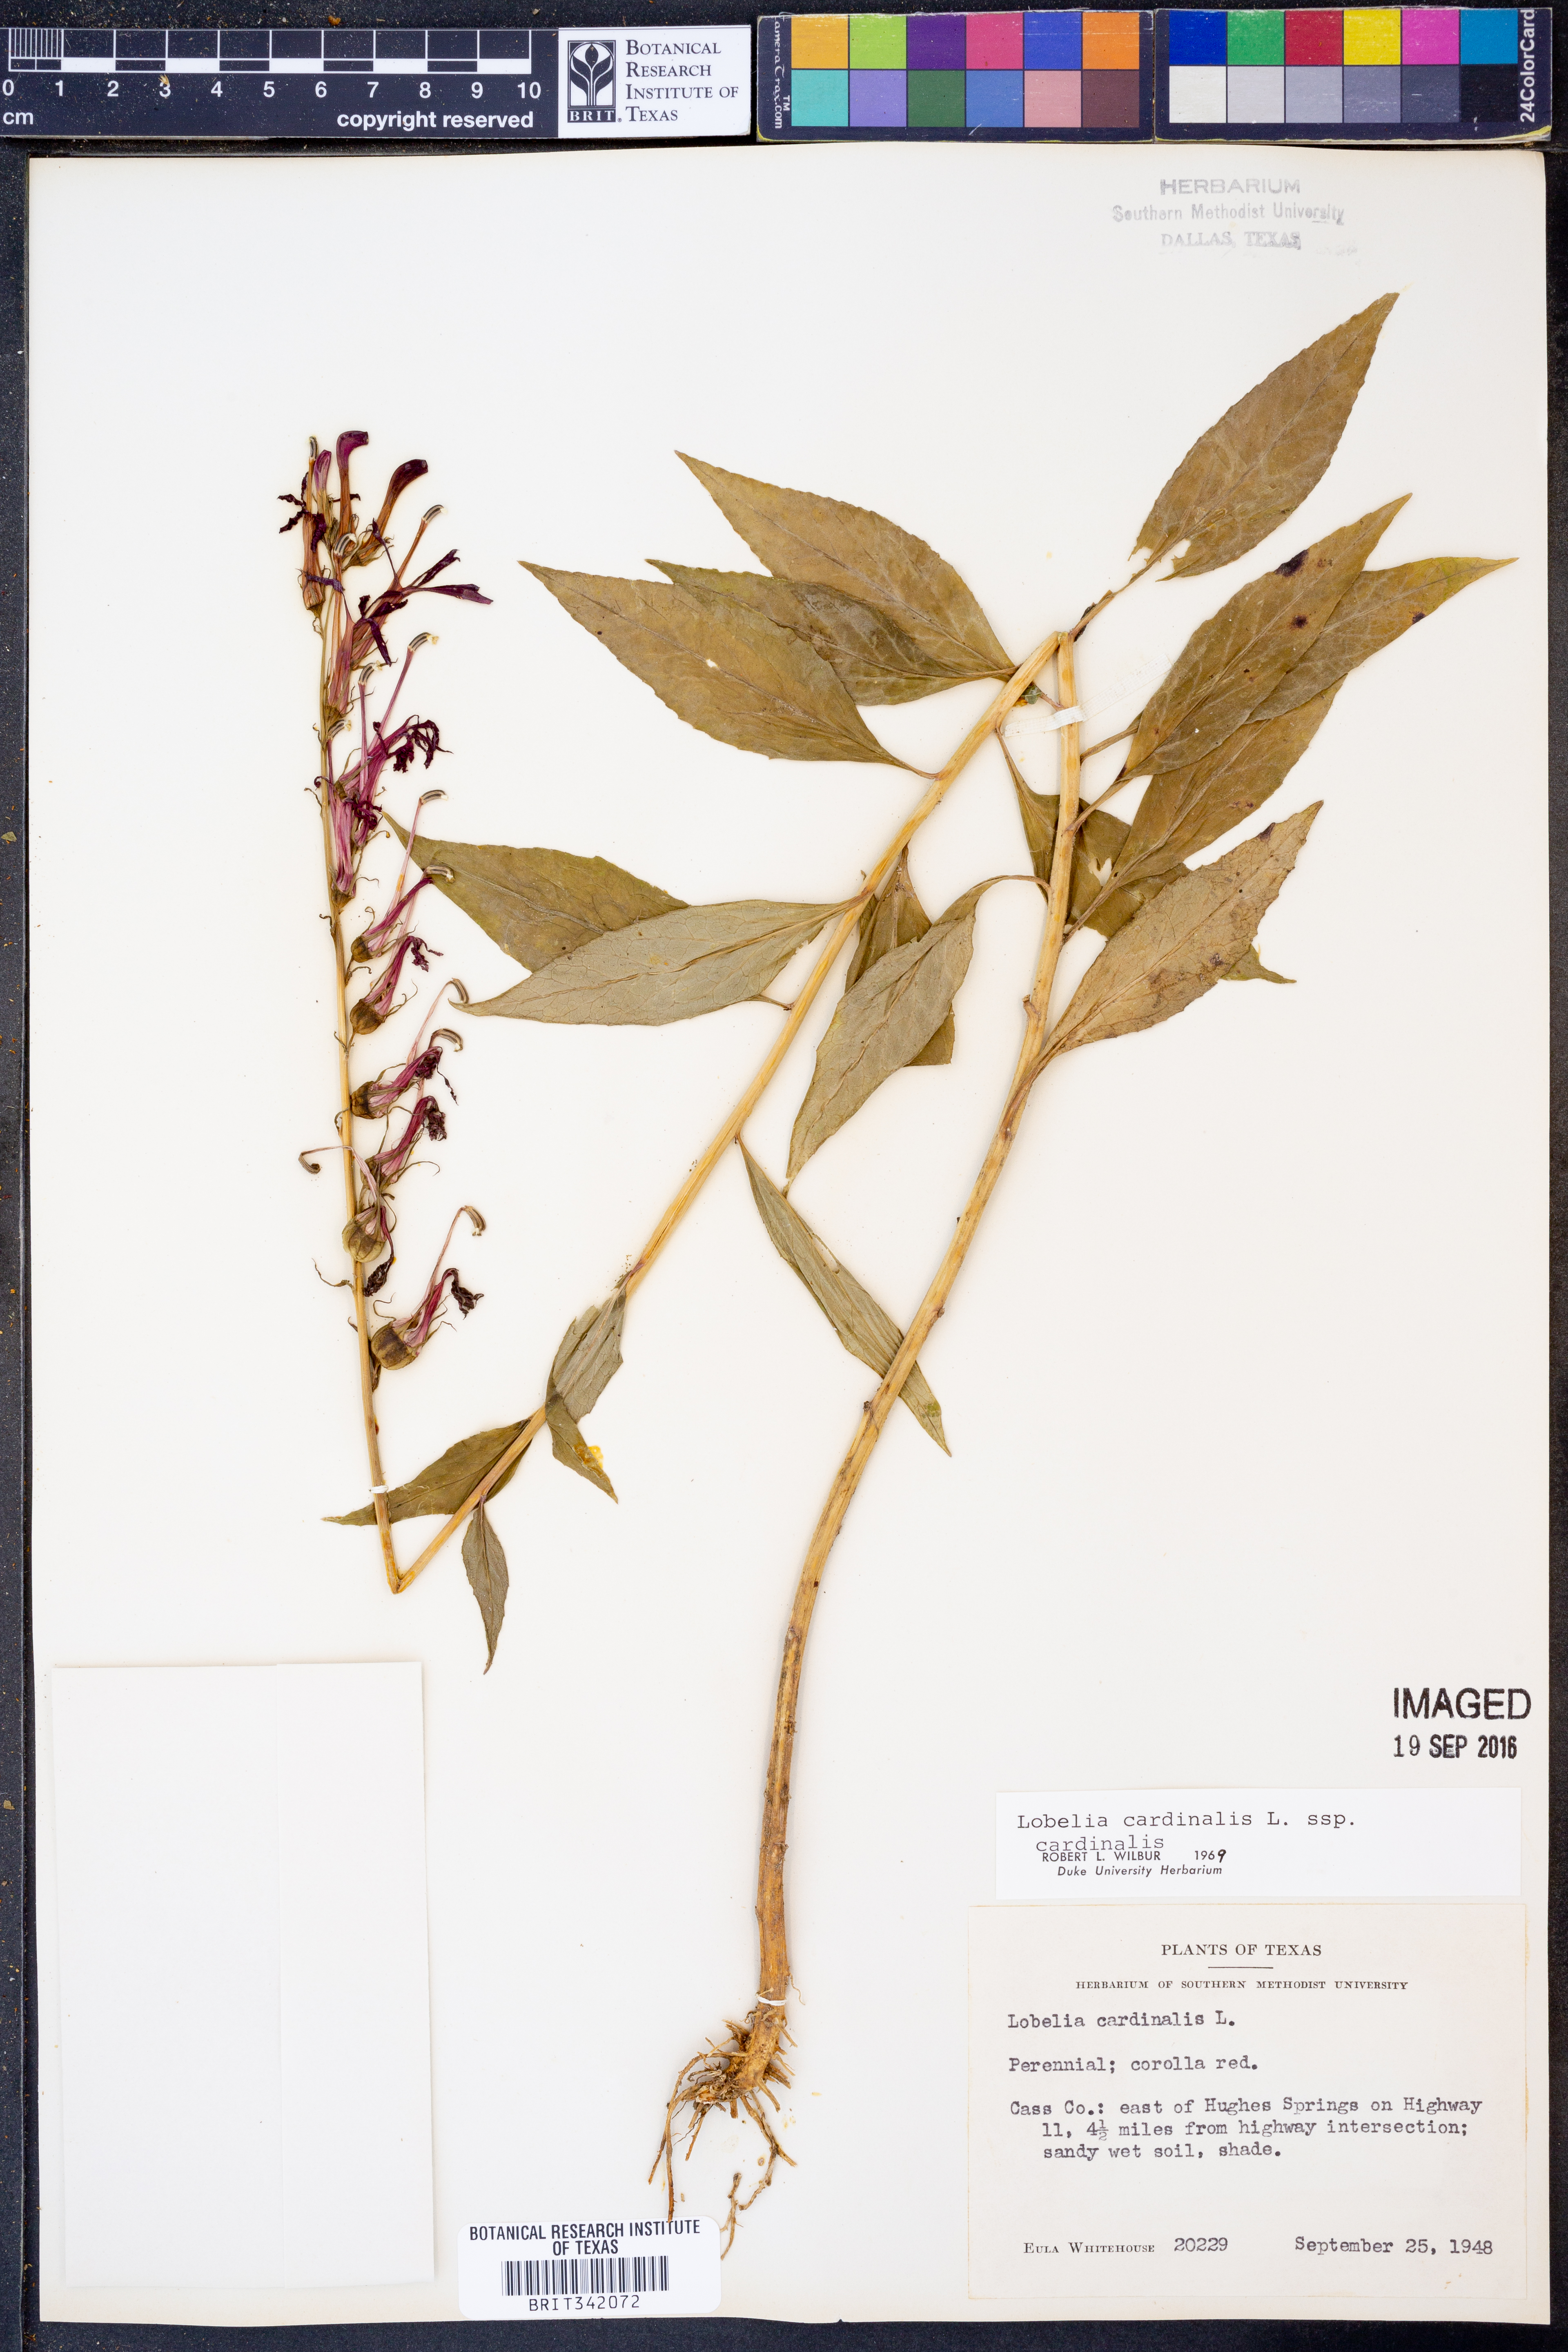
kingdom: Plantae
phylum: Tracheophyta
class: Magnoliopsida
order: Asterales
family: Campanulaceae
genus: Lobelia
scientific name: Lobelia cardinalis
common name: Cardinal flower
